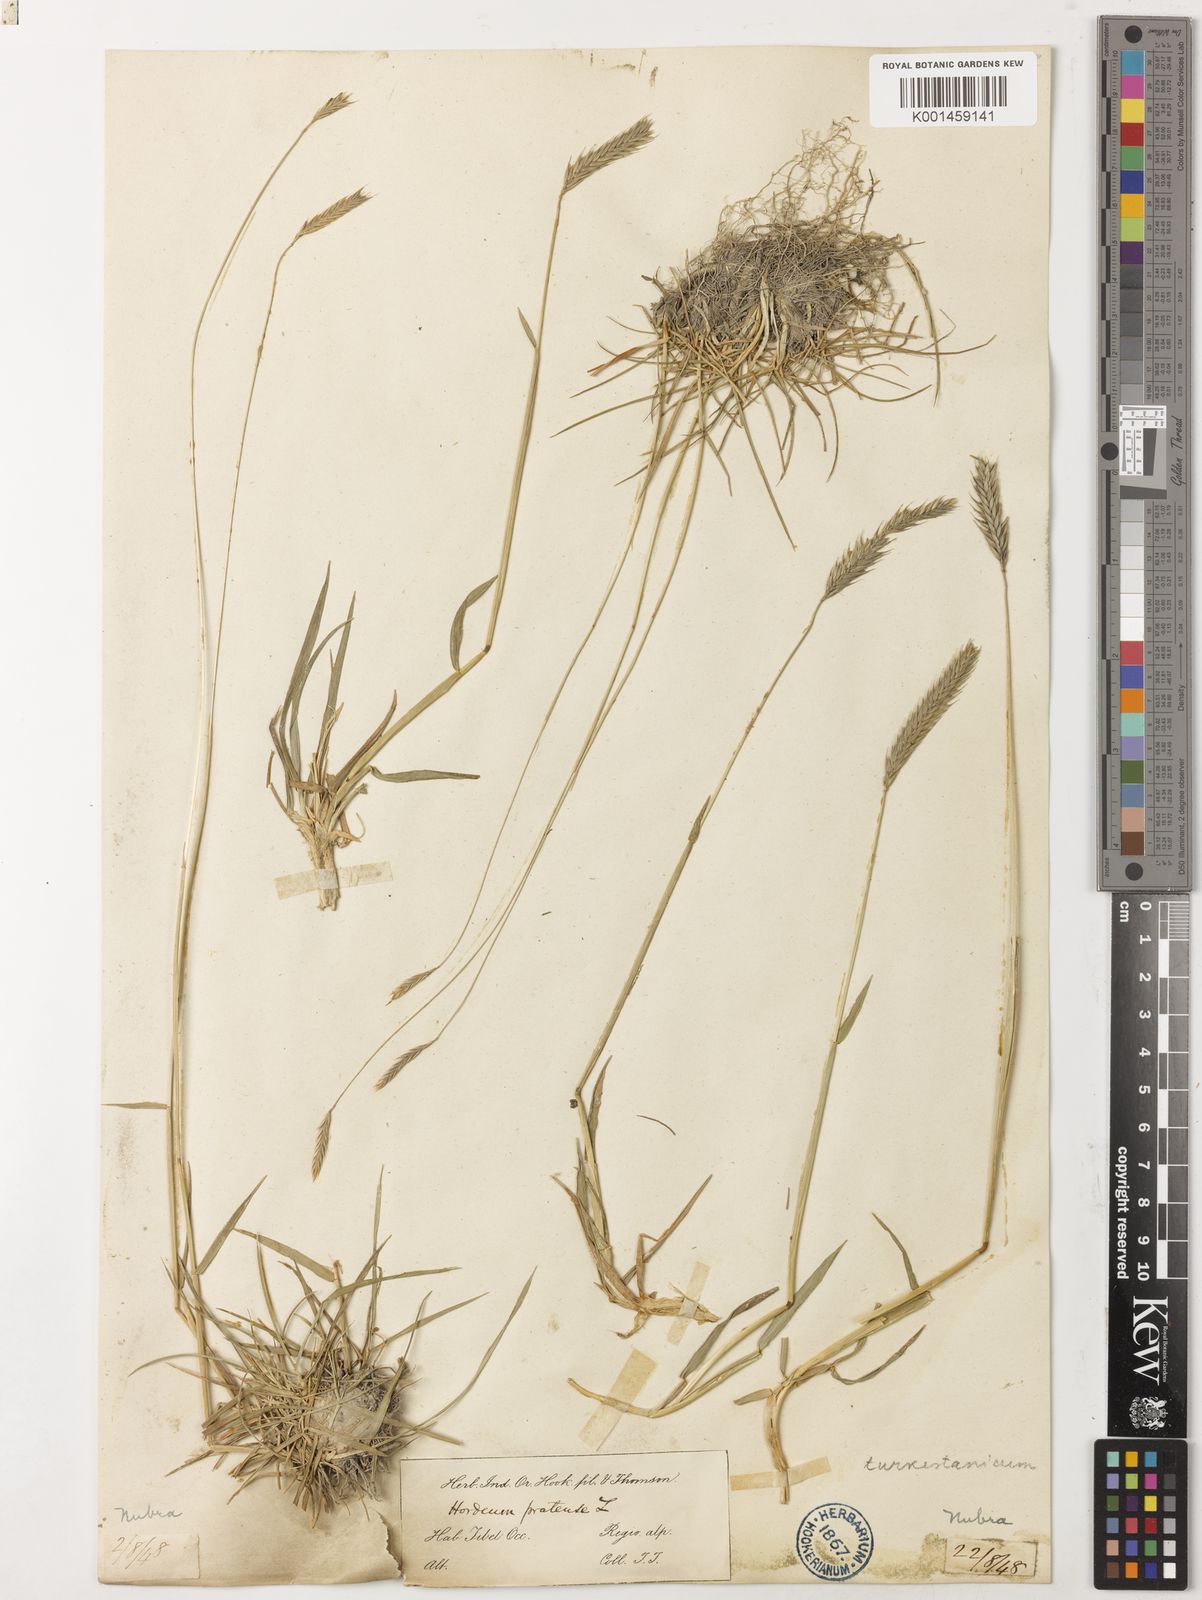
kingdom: Plantae
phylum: Tracheophyta
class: Liliopsida
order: Poales
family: Poaceae
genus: Hordeum
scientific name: Hordeum brevisubulatum
